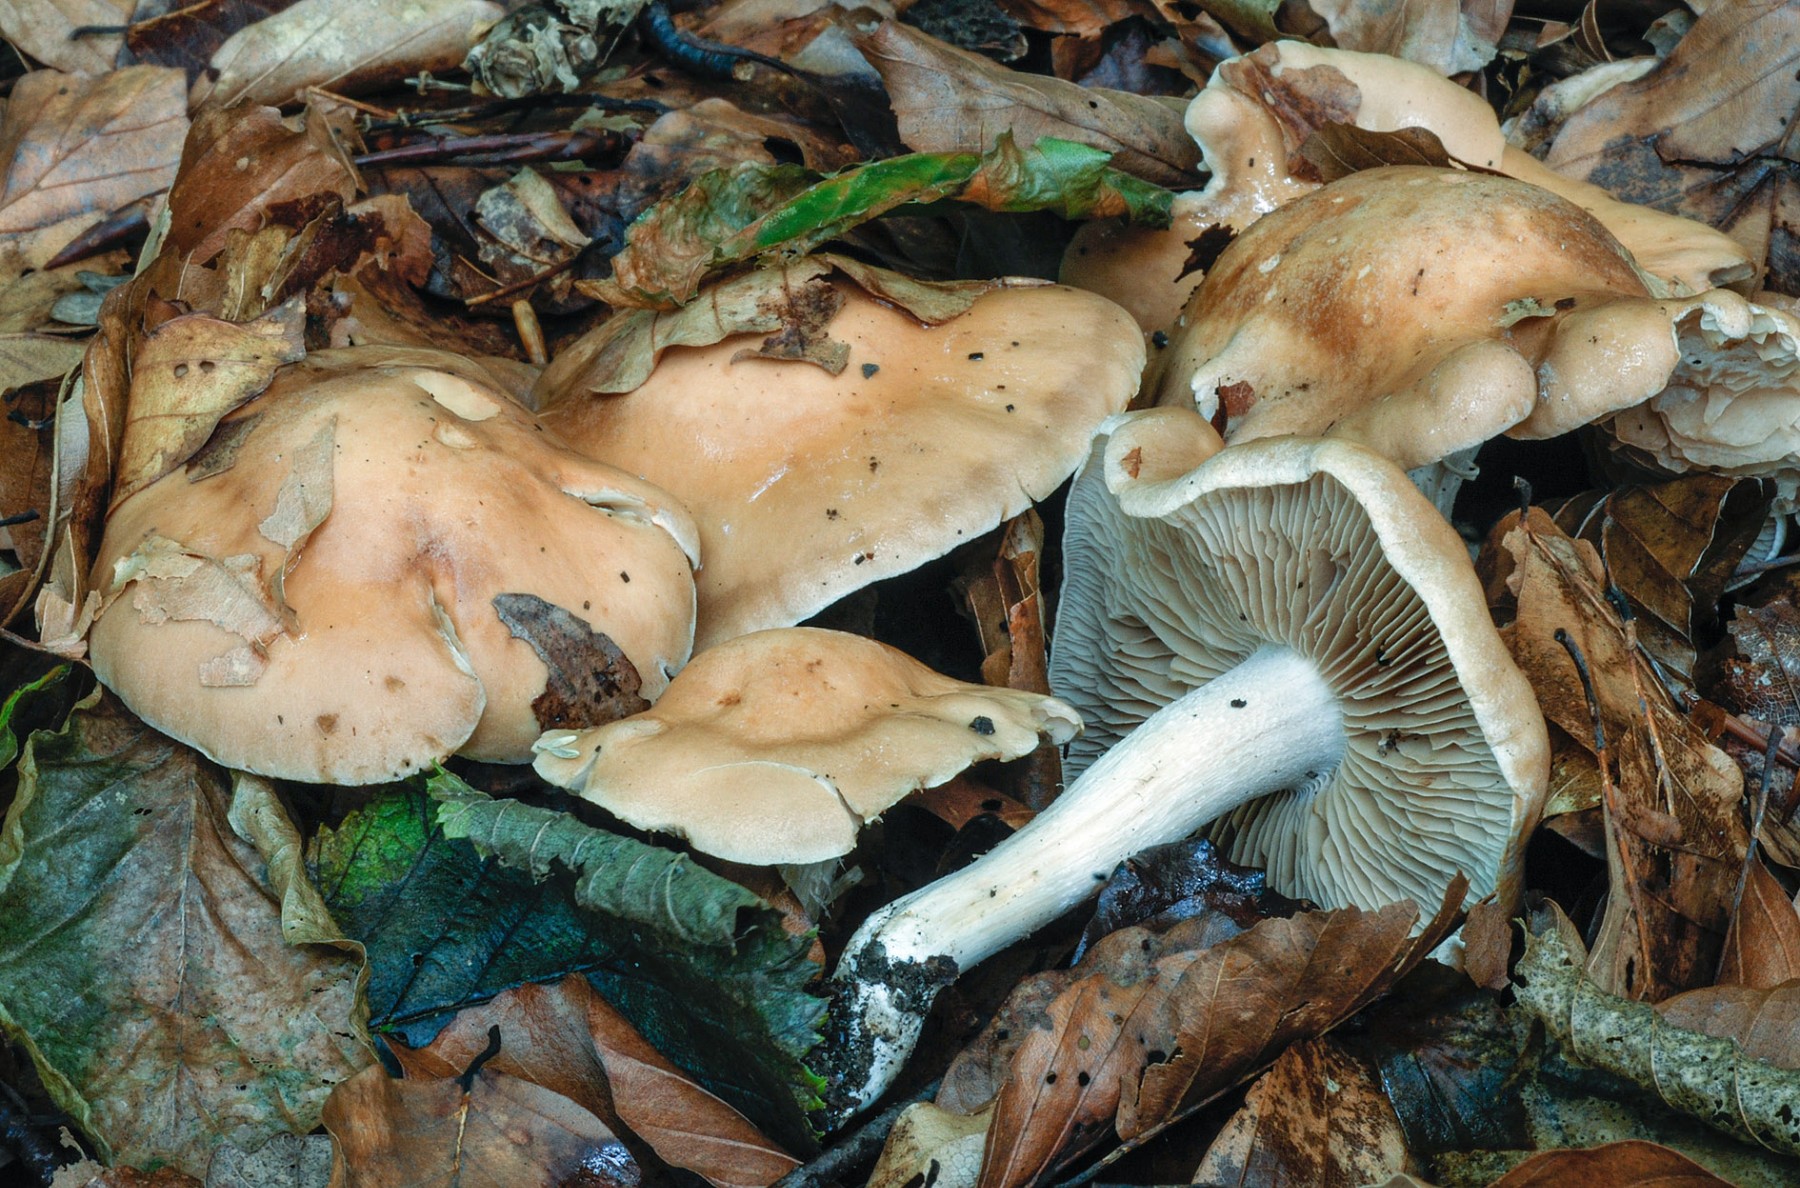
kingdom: Fungi
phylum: Basidiomycota
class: Agaricomycetes
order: Agaricales
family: Hymenogastraceae
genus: Hebeloma
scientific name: Hebeloma vesterholtii
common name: Vesterholts tåreblad
